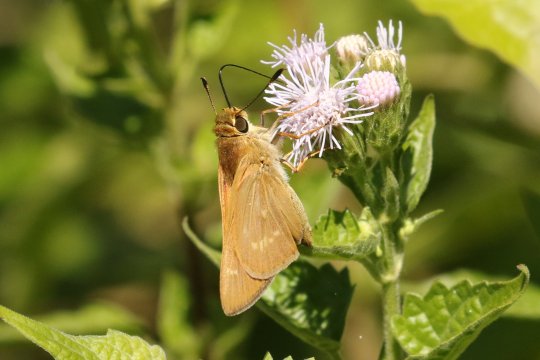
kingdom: Animalia
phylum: Arthropoda
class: Insecta
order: Lepidoptera
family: Hesperiidae
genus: Mellana
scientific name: Mellana eulogius
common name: Common Mellana
